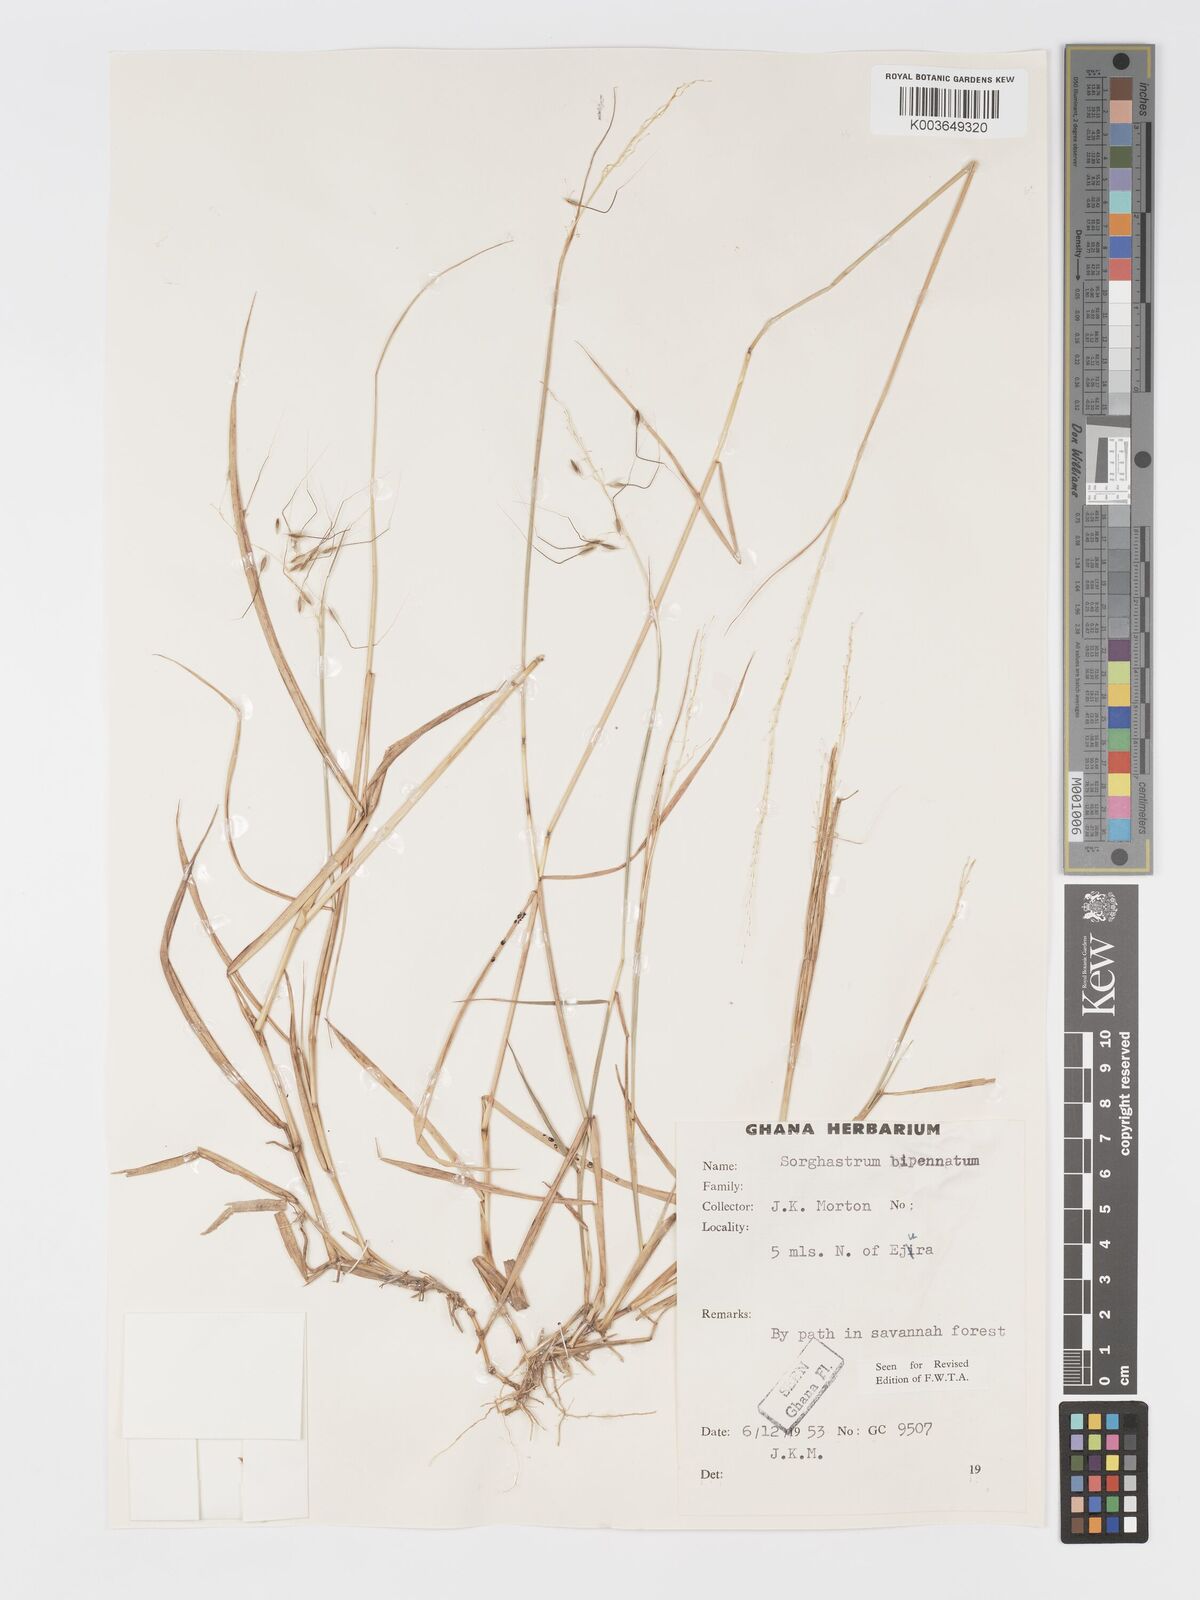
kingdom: Plantae
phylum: Tracheophyta
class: Liliopsida
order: Poales
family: Poaceae
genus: Sorghastrum
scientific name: Sorghastrum incompletum
